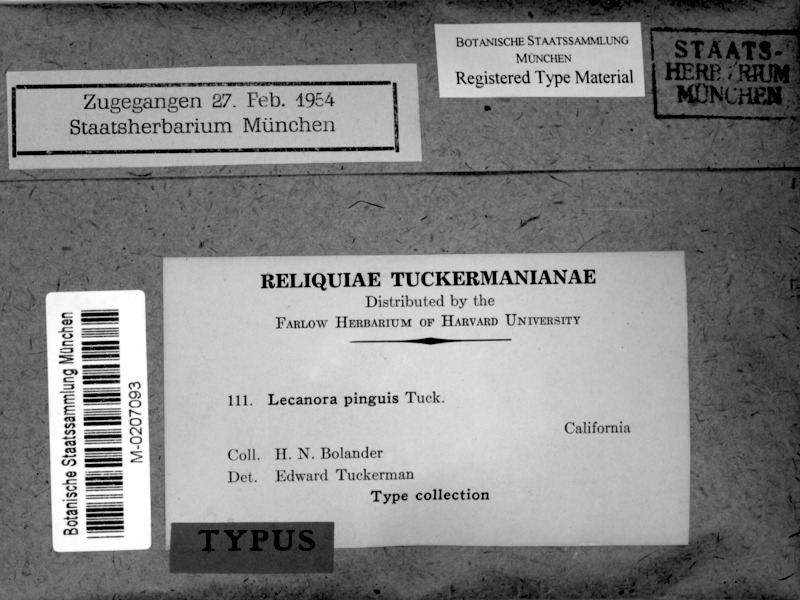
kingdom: Fungi
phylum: Ascomycota
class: Lecanoromycetes
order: Lecanorales
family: Lecanoraceae
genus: Protoparmeliopsis
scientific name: Protoparmeliopsis pinguis
